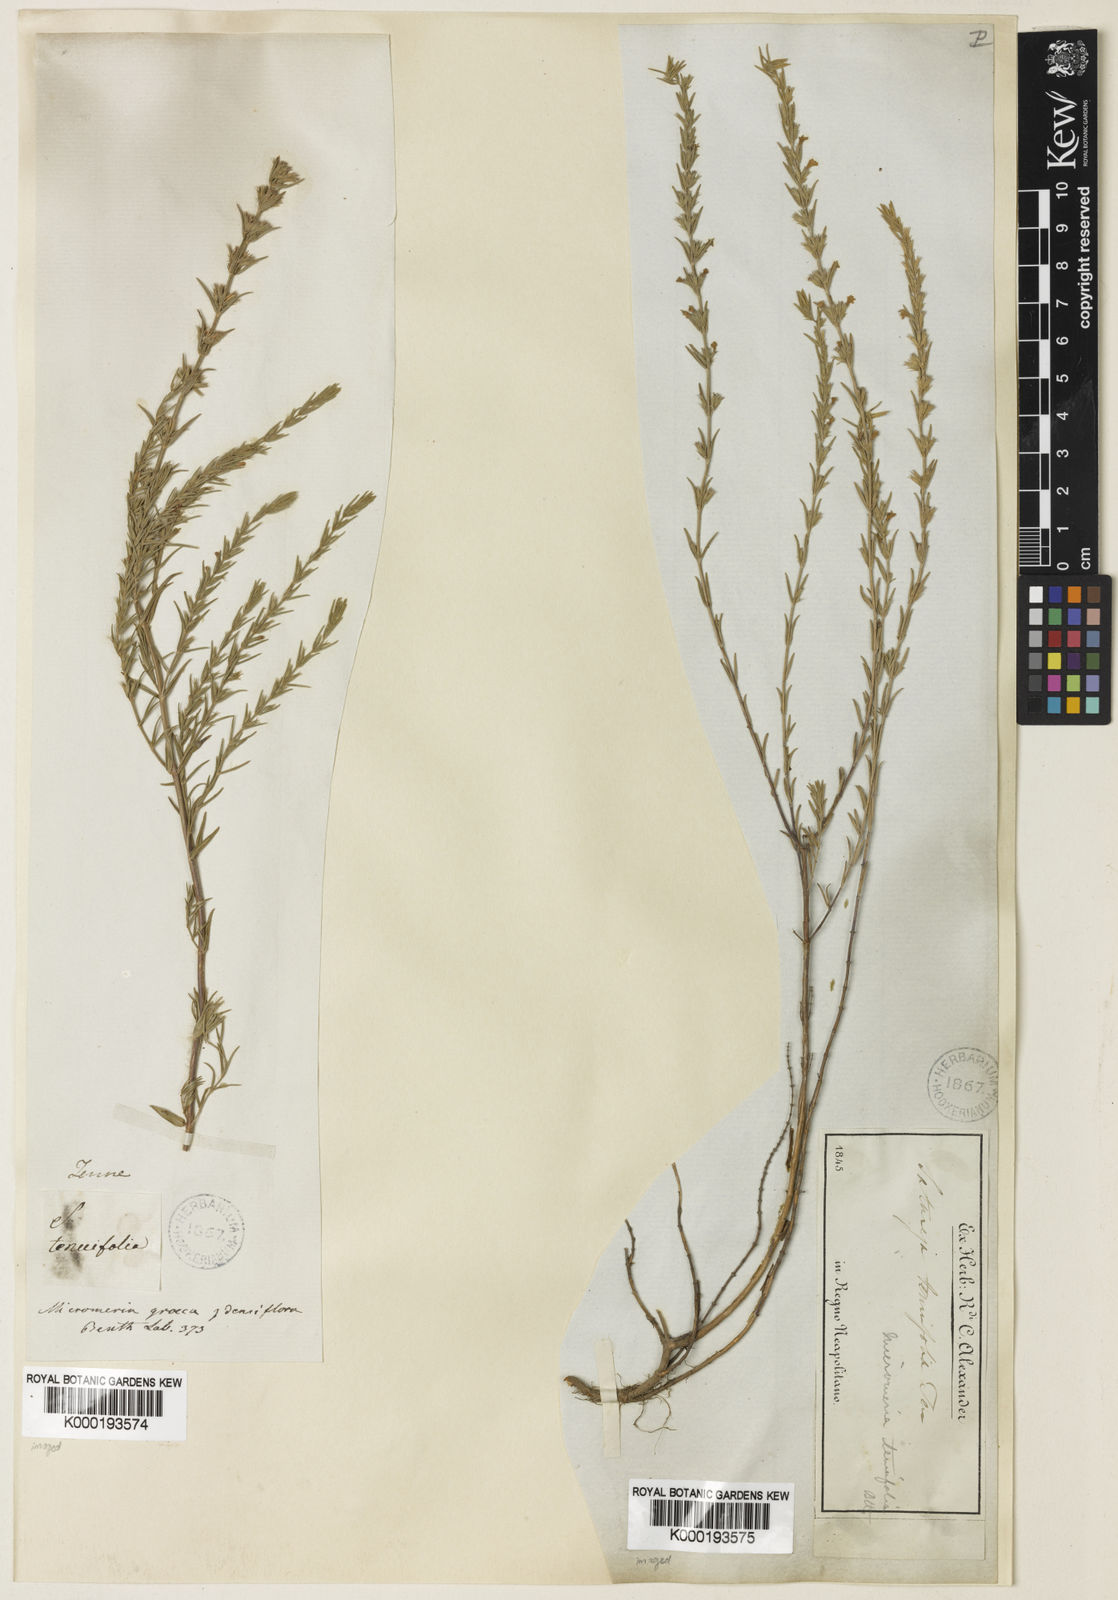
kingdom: Plantae
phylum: Tracheophyta
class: Magnoliopsida
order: Lamiales
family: Lamiaceae
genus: Micromeria
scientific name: Micromeria graeca
